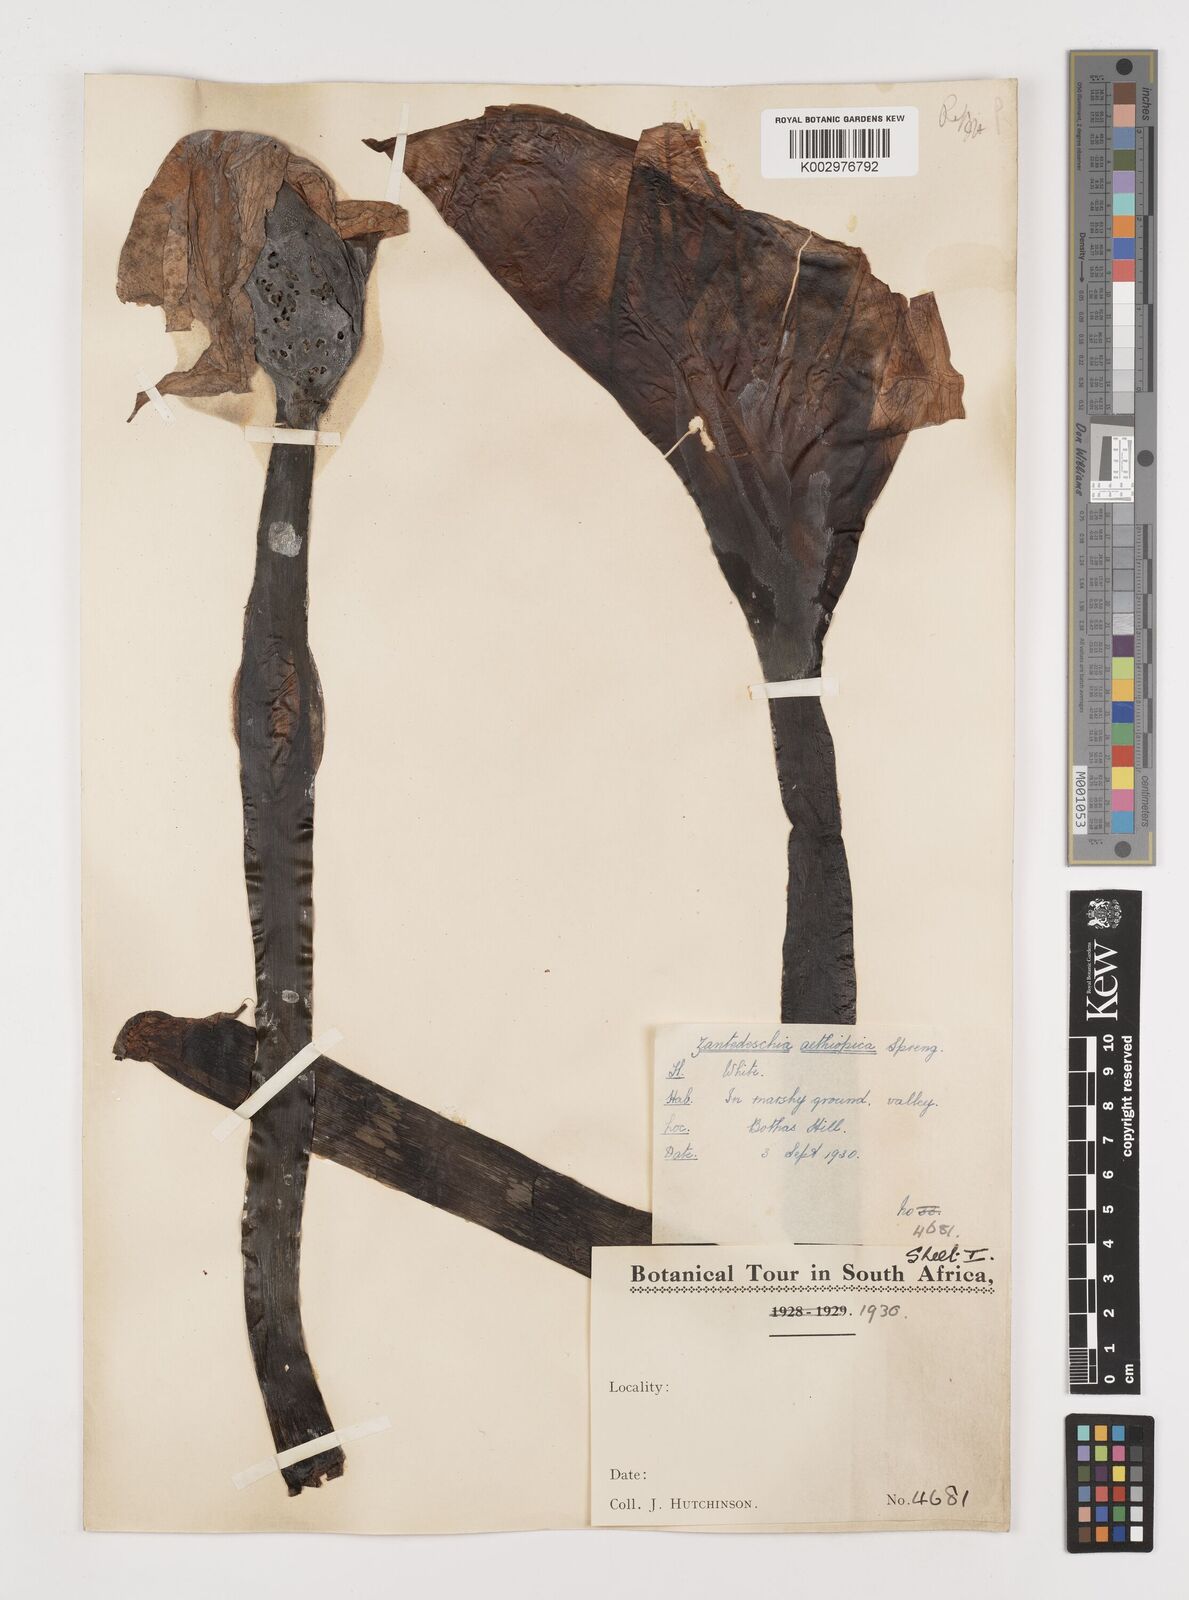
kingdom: Plantae
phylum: Tracheophyta
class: Liliopsida
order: Alismatales
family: Araceae
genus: Zantedeschia
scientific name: Zantedeschia aethiopica
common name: Altar-lily
